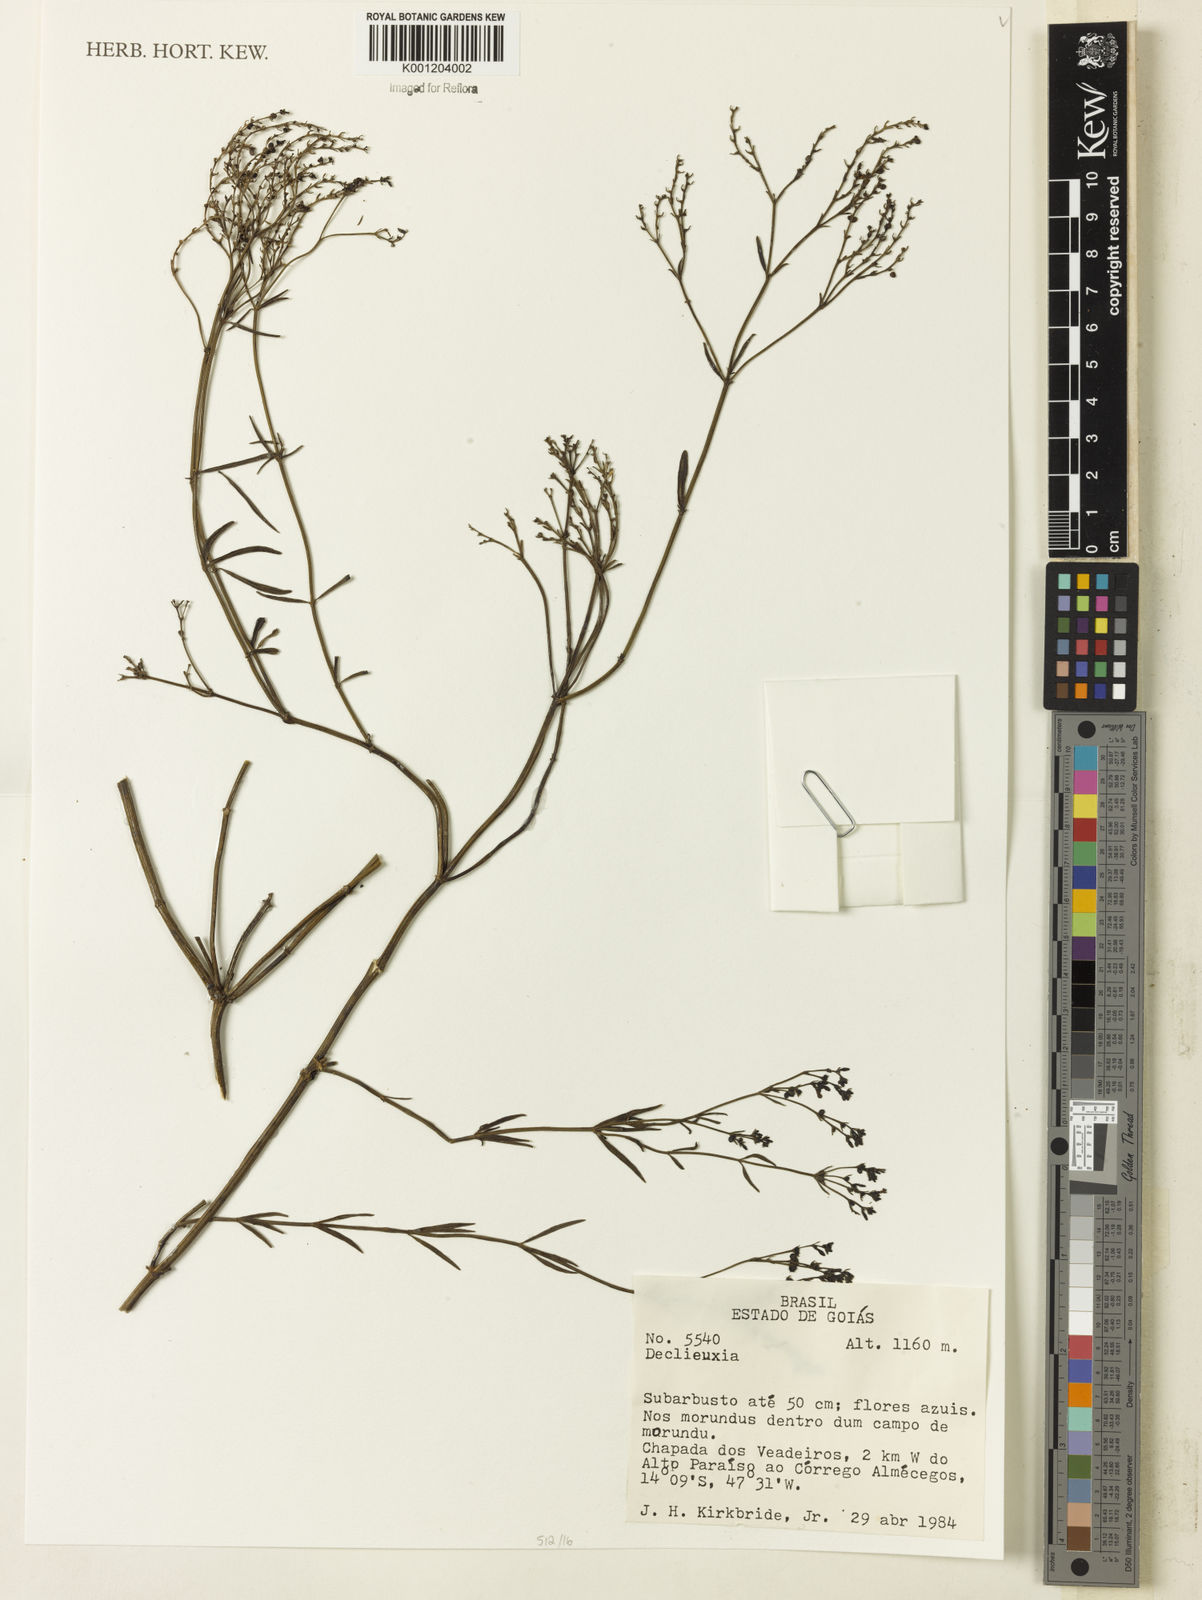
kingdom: Plantae
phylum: Tracheophyta
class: Magnoliopsida
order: Gentianales
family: Rubiaceae
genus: Declieuxia
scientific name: Declieuxia
